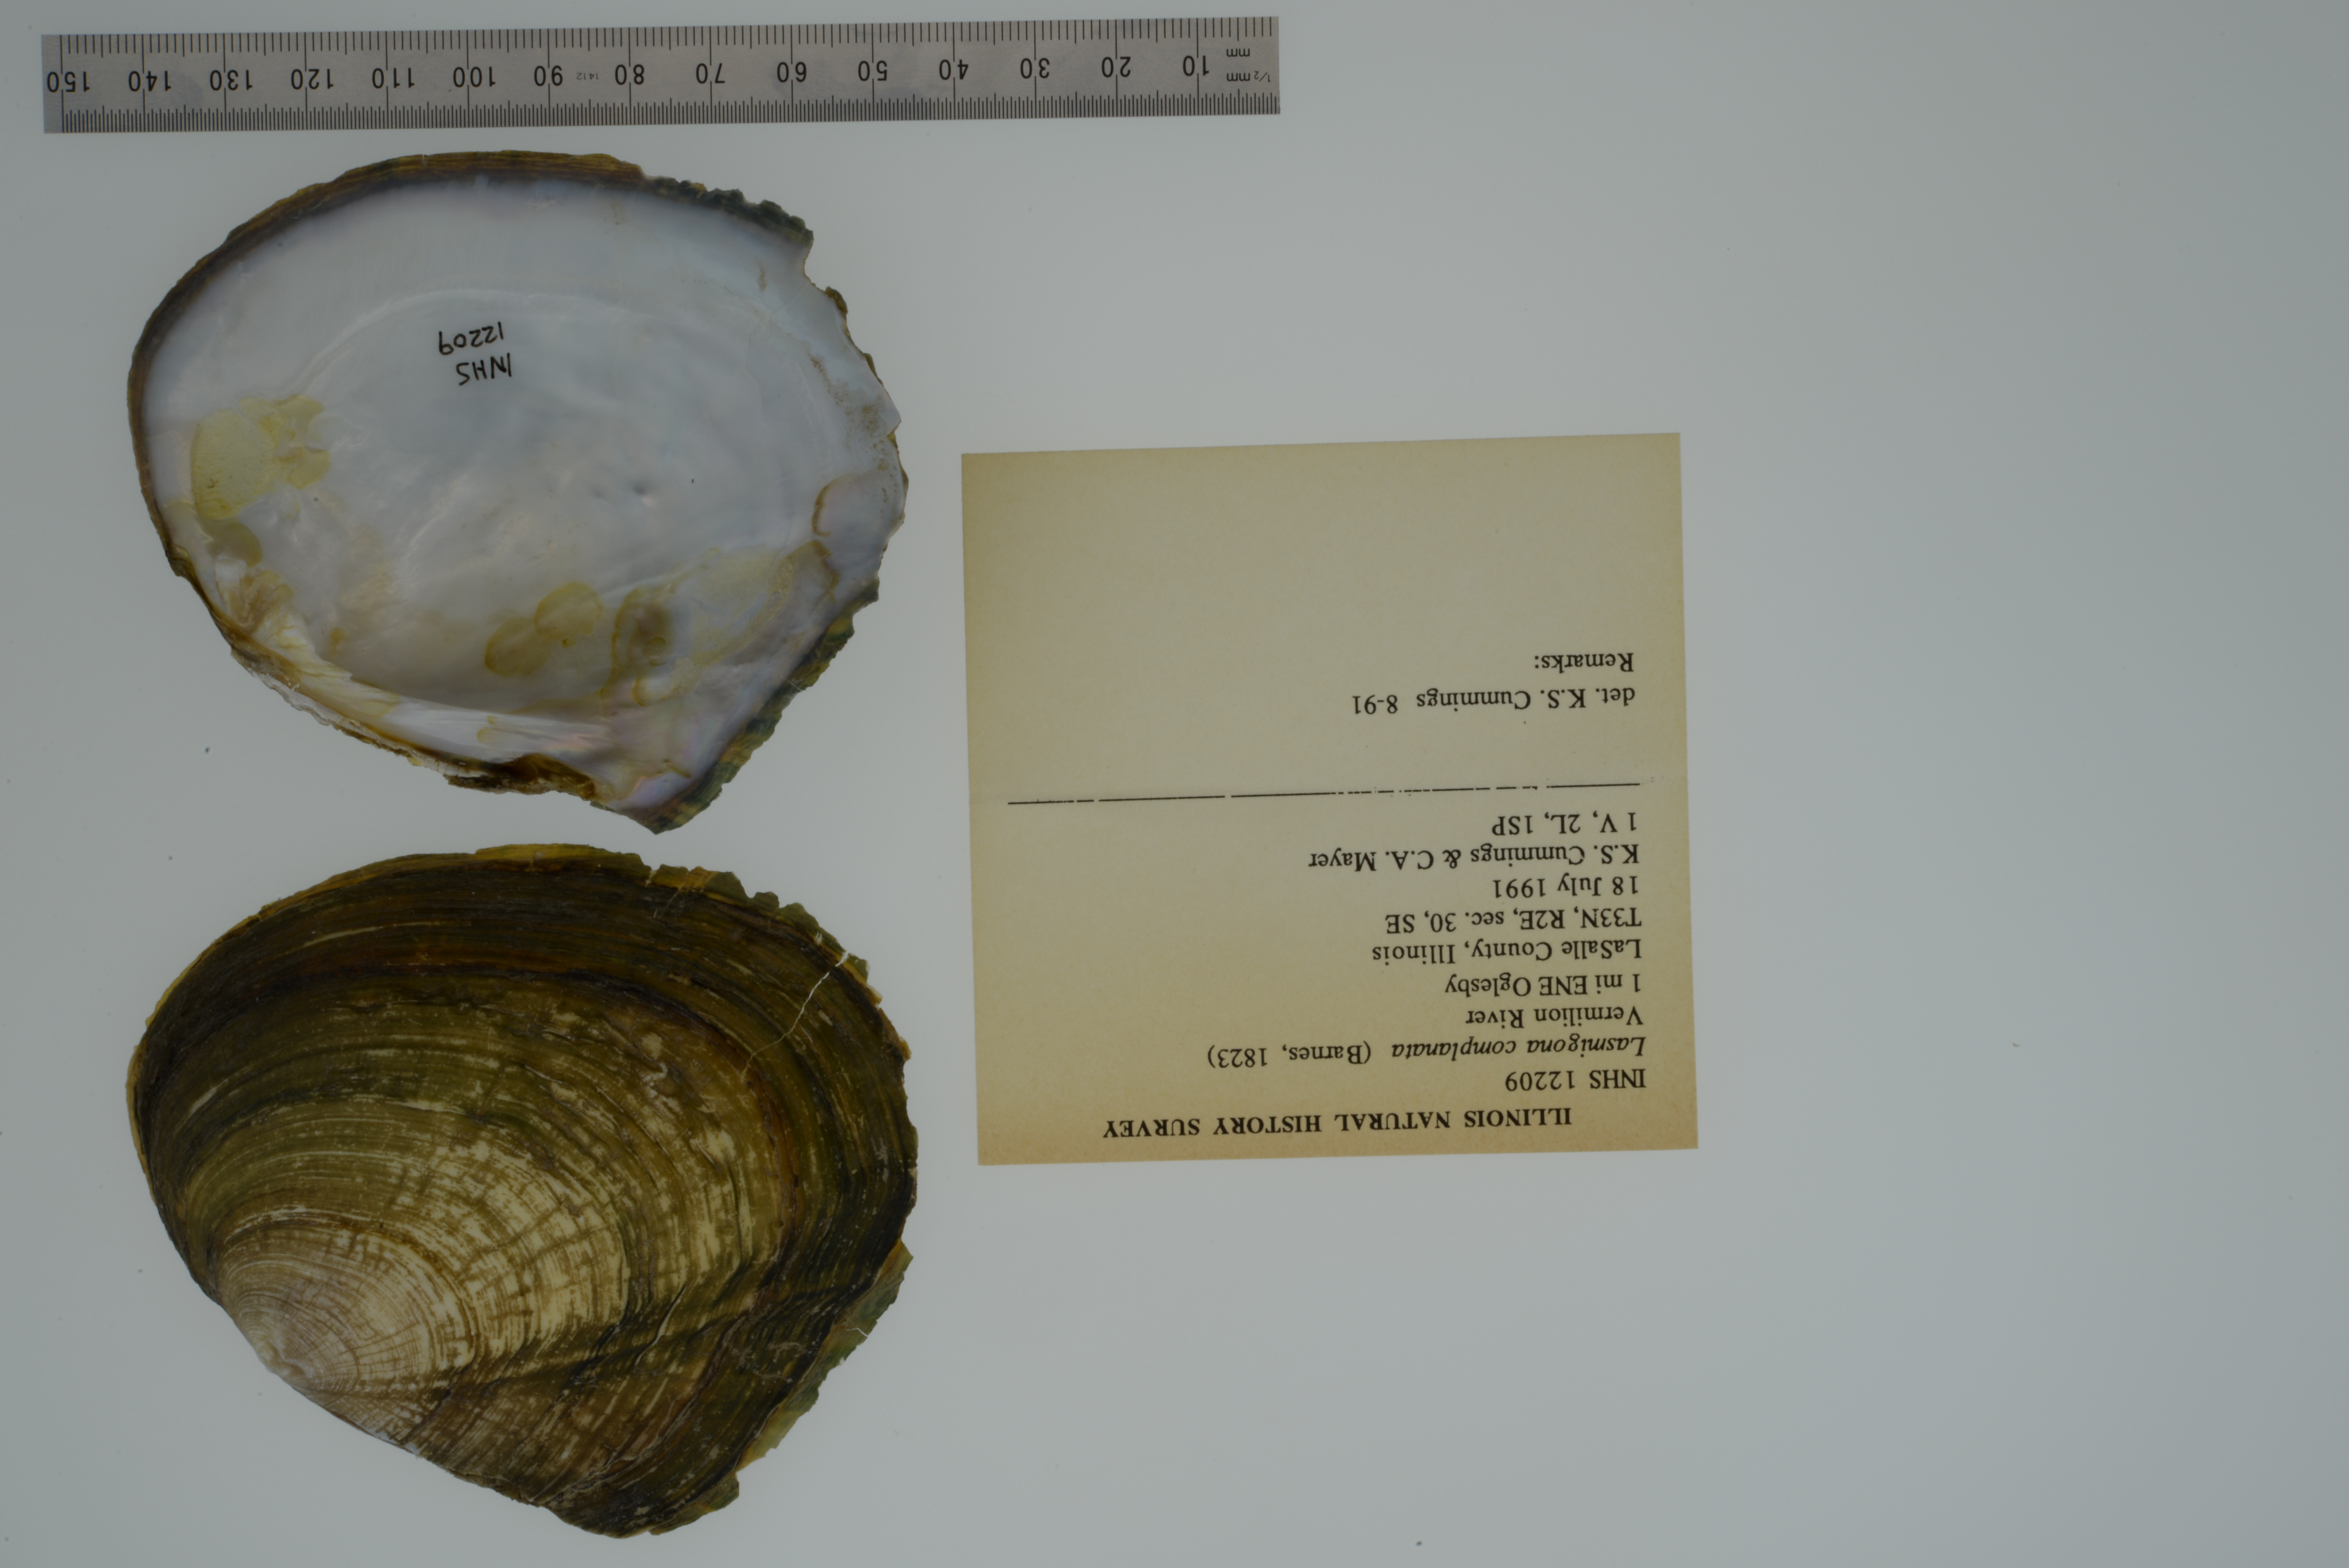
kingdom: Animalia
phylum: Mollusca
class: Bivalvia
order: Unionida
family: Unionidae
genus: Lasmigona
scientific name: Lasmigona complanata
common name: White heelsplitter
